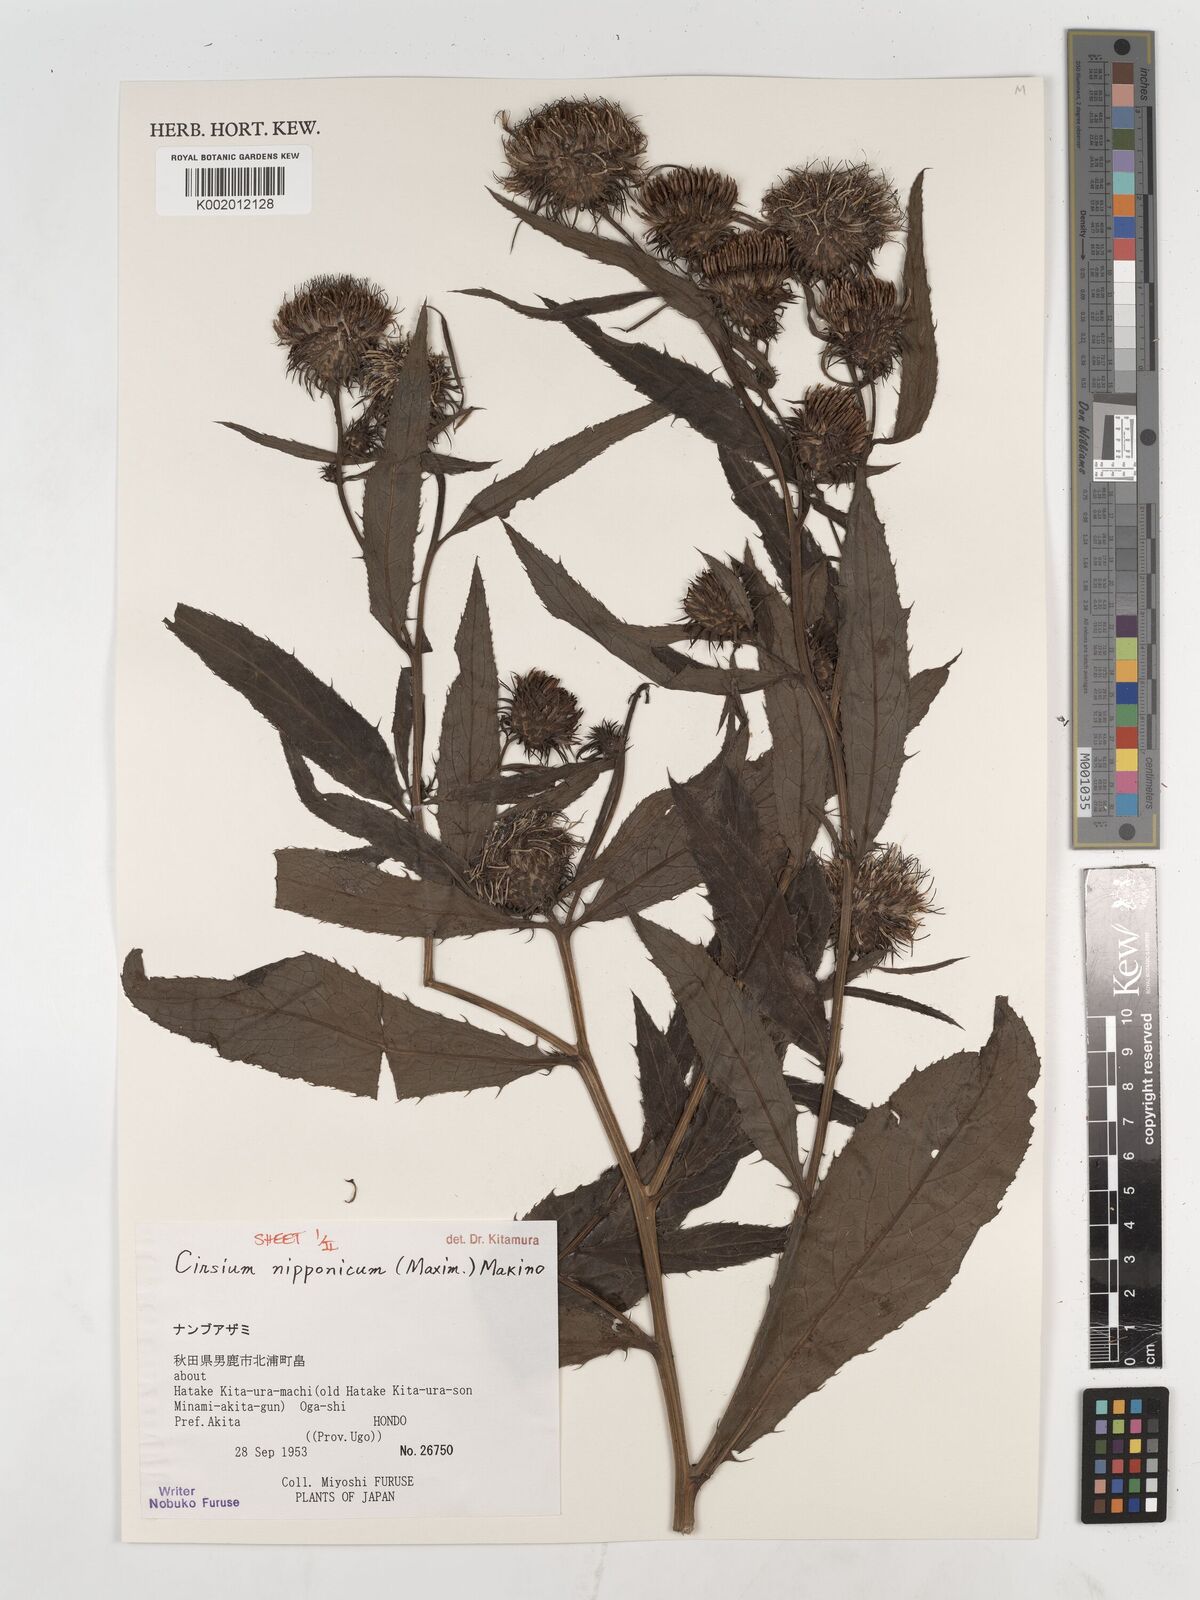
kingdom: Plantae
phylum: Tracheophyta
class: Magnoliopsida
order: Asterales
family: Asteraceae
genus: Cirsium
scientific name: Cirsium nipponicum
